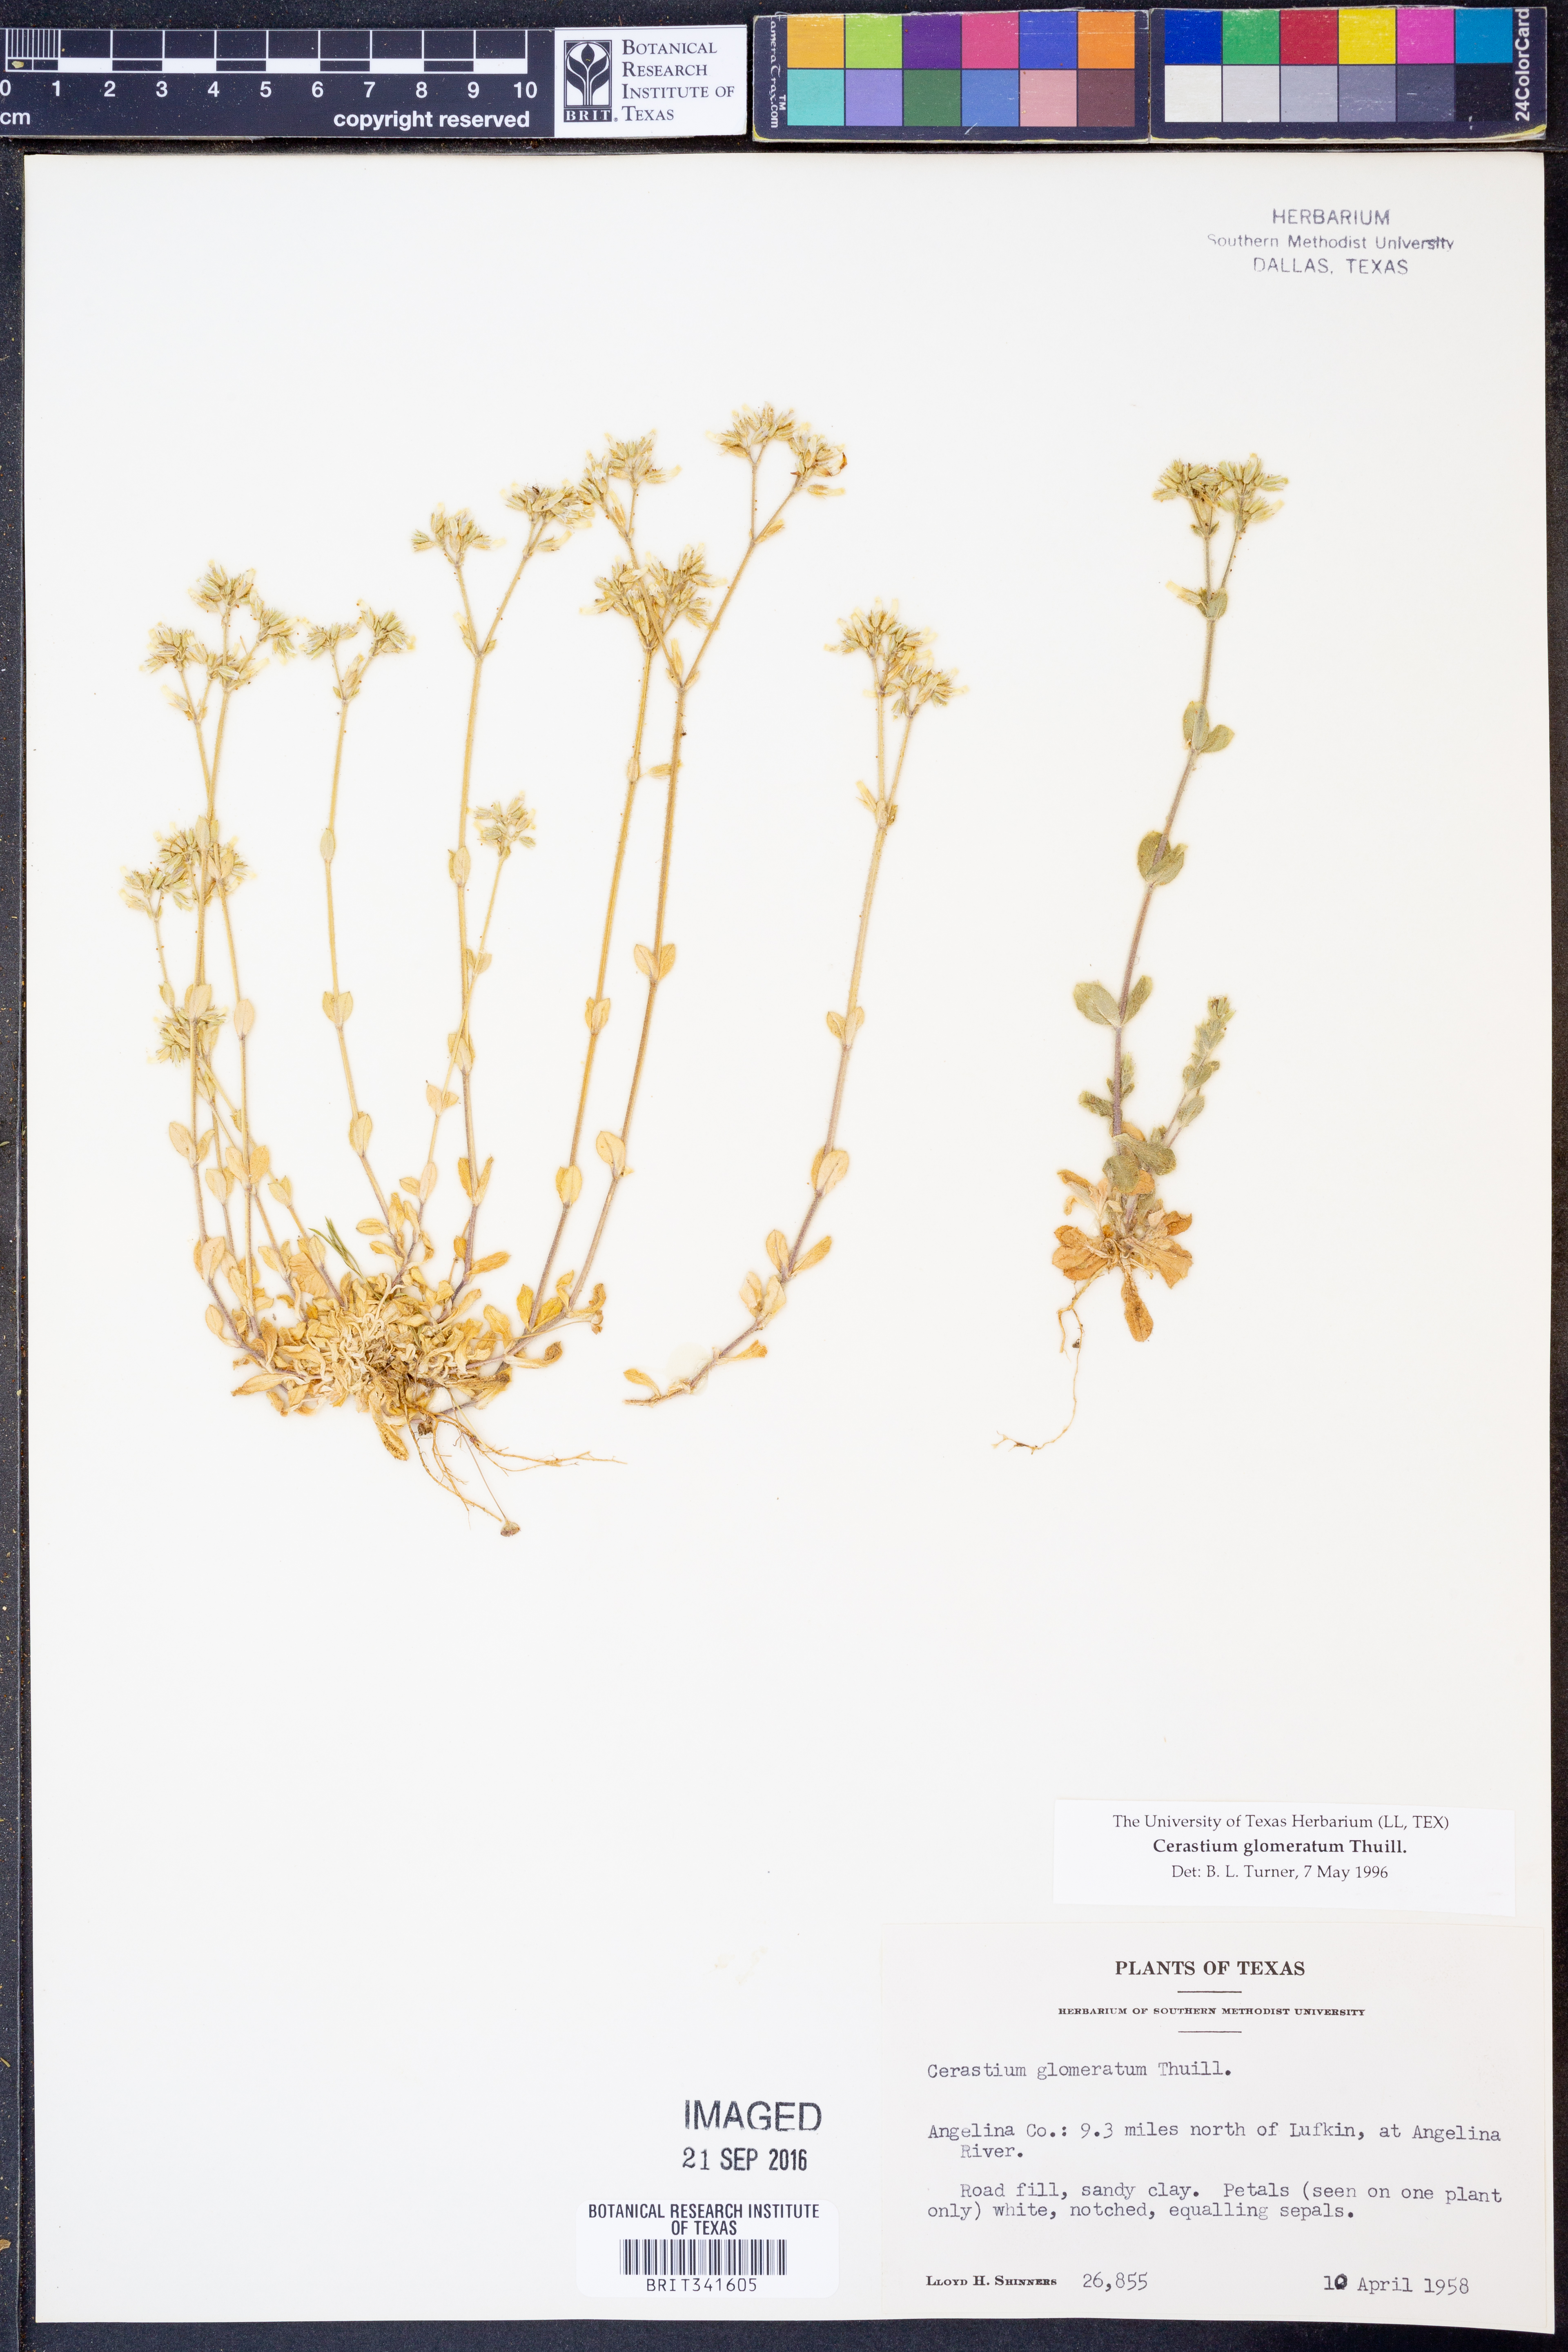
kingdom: Plantae
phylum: Tracheophyta
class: Magnoliopsida
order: Caryophyllales
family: Caryophyllaceae
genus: Cerastium
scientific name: Cerastium glomeratum
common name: Sticky chickweed
